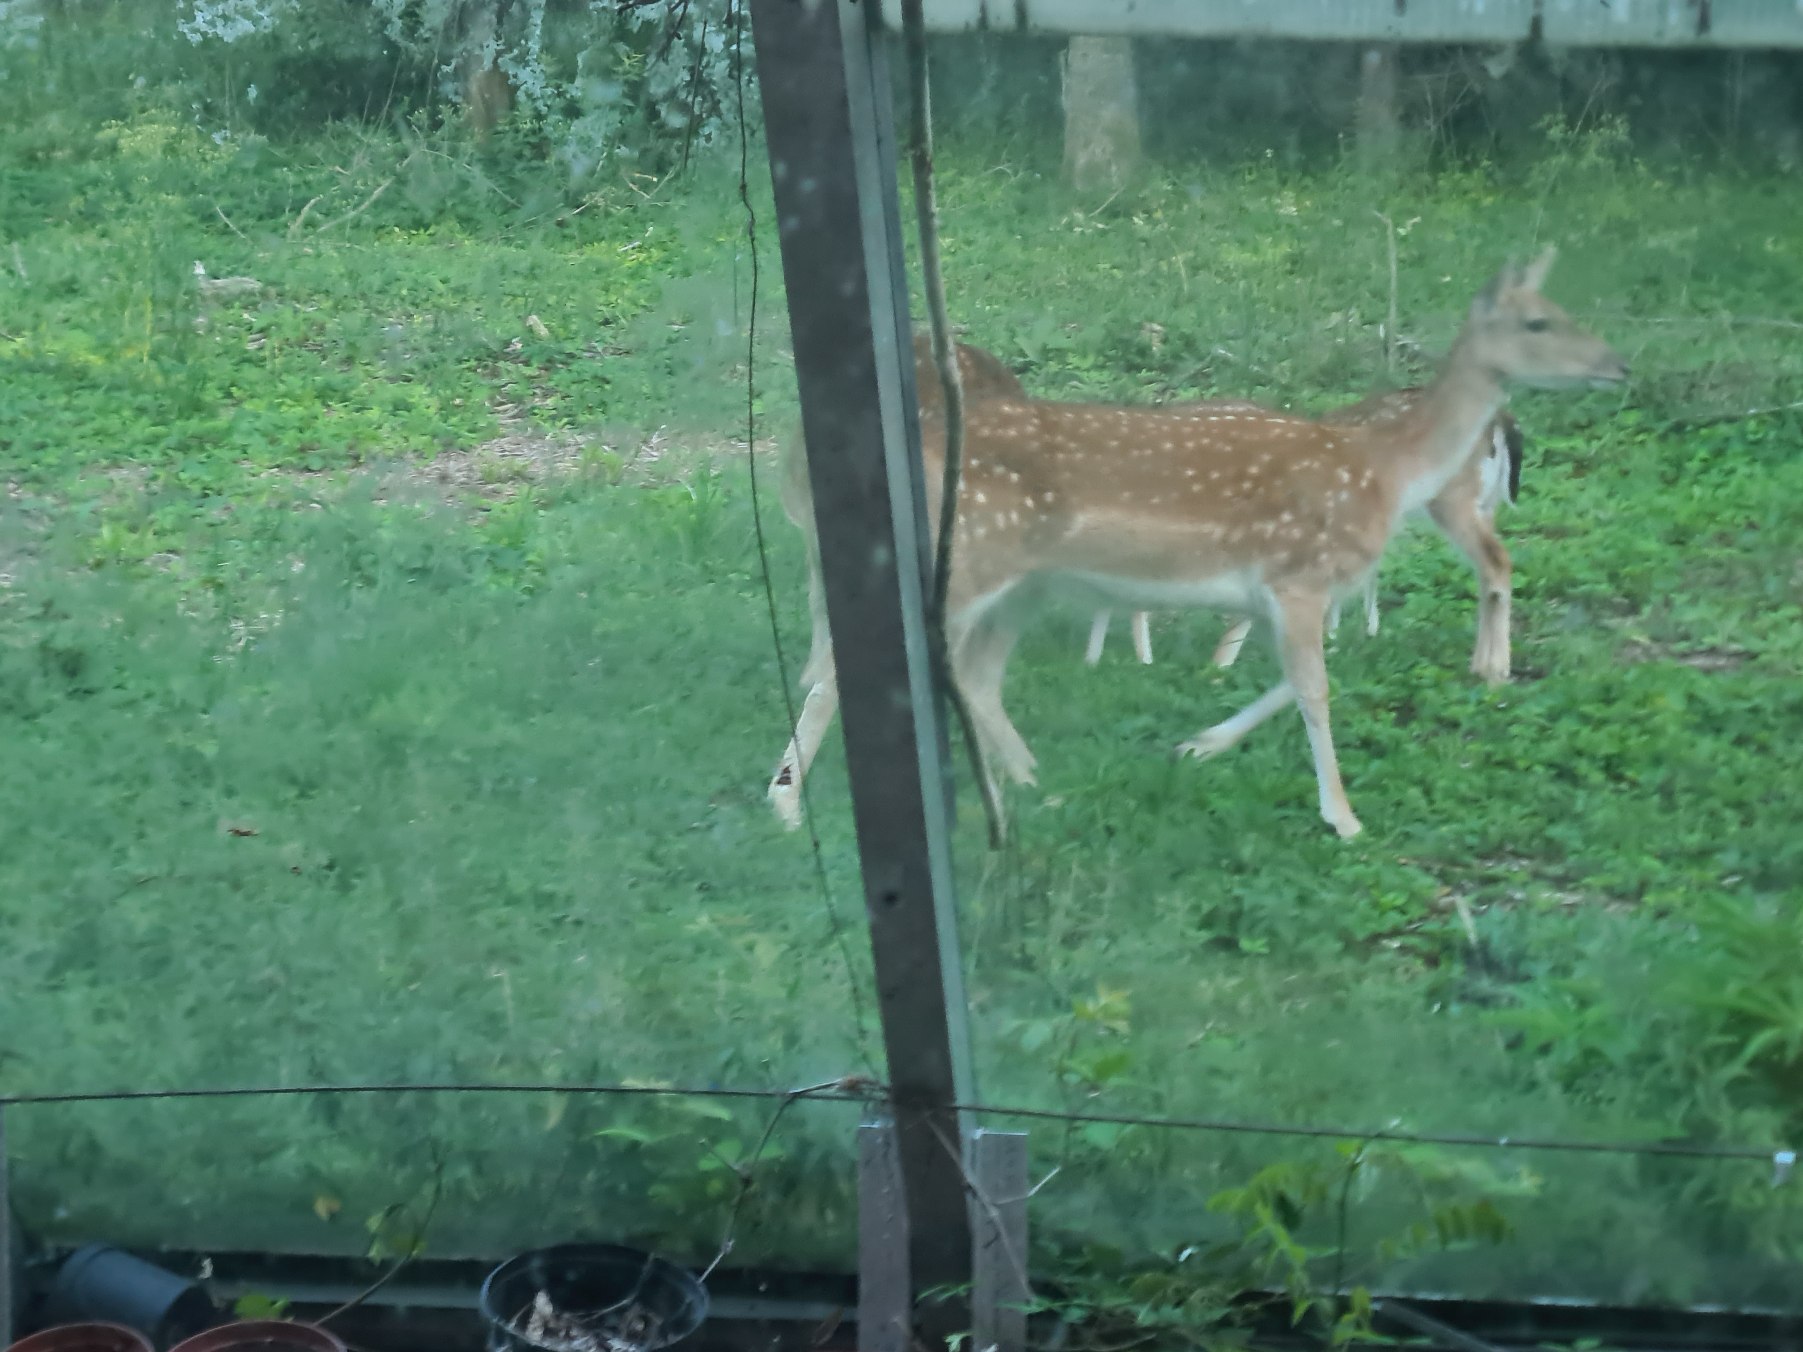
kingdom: Animalia
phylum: Chordata
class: Mammalia
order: Artiodactyla
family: Cervidae
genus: Dama
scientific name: Dama dama
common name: Dådyr
